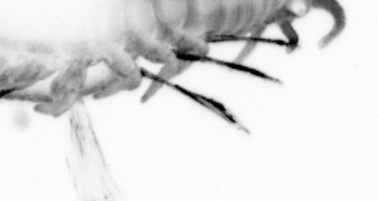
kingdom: Animalia
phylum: Annelida
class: Polychaeta
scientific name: Polychaeta
